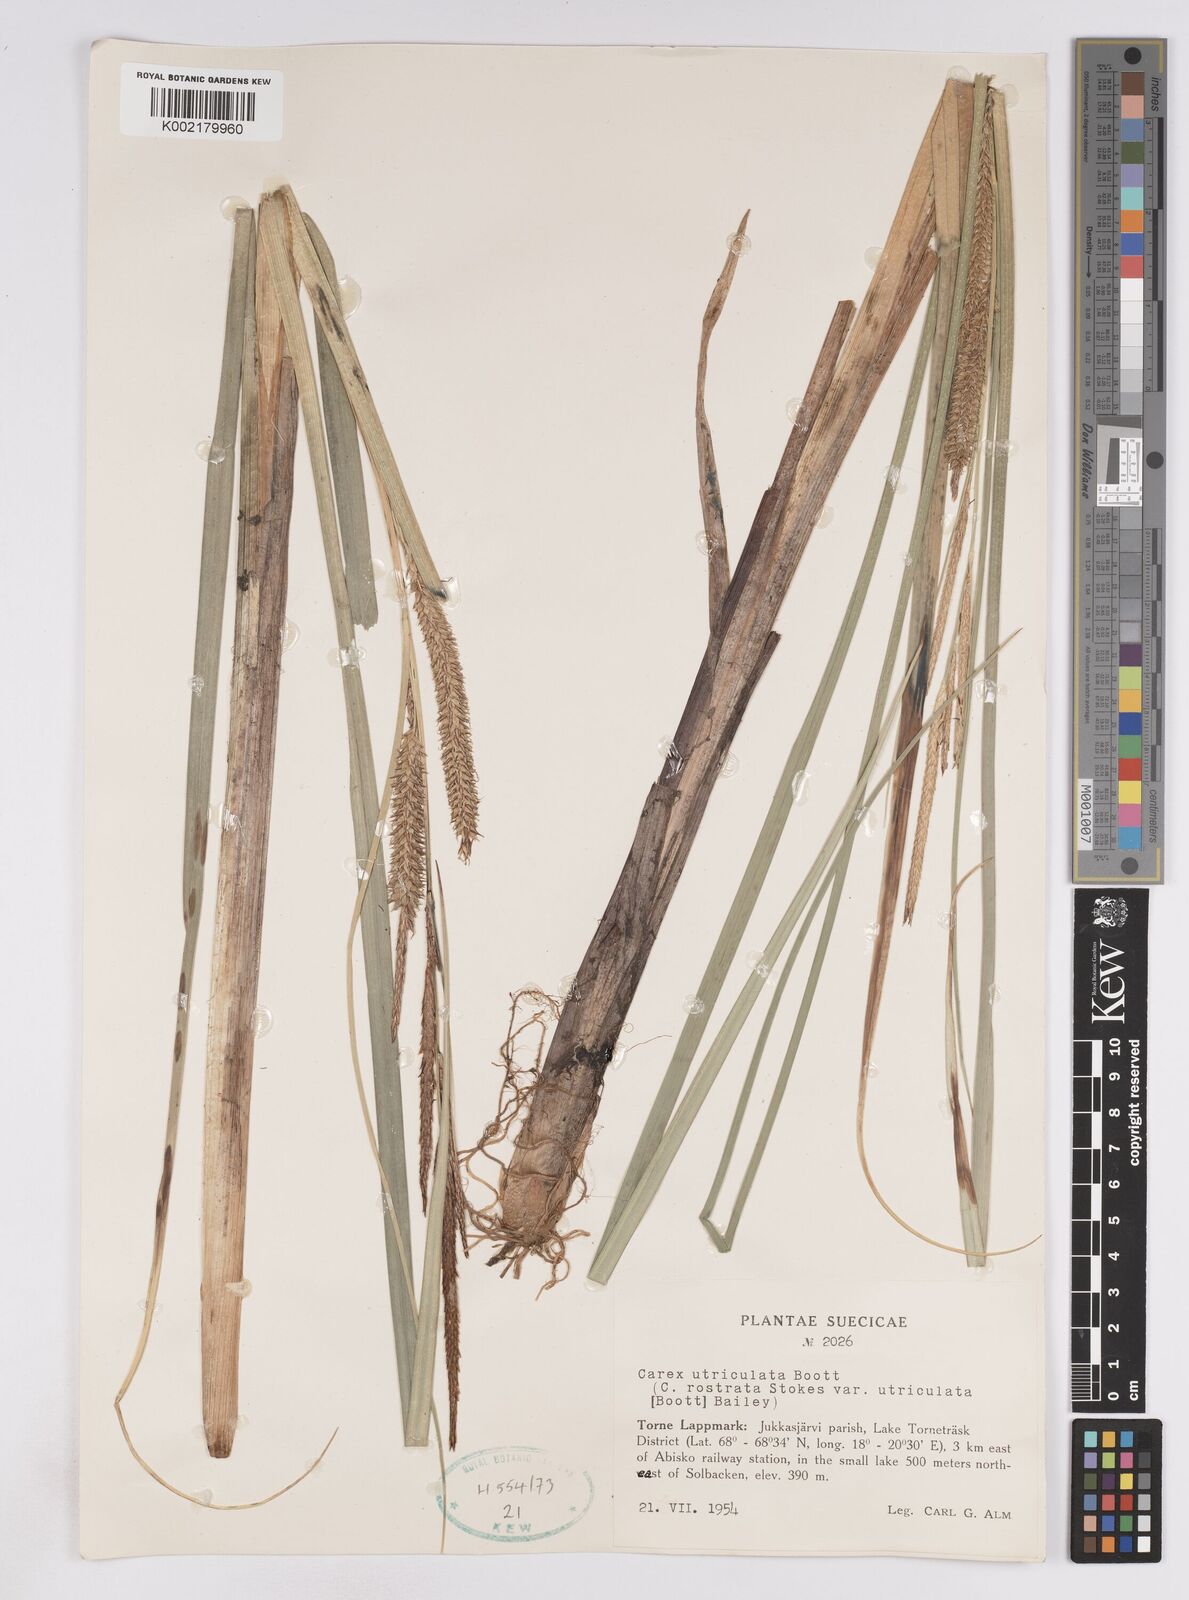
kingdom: Plantae
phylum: Tracheophyta
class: Liliopsida
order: Poales
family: Cyperaceae
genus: Carex
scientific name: Carex utriculata
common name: Beaked sedge
